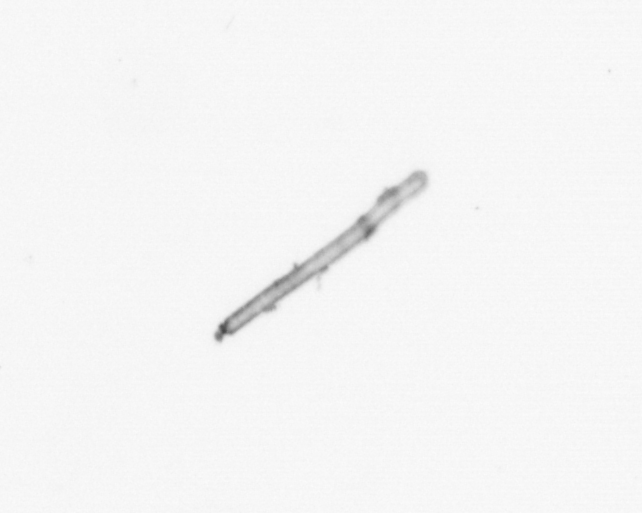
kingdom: Chromista
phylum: Ochrophyta
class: Bacillariophyceae
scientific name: Bacillariophyceae
